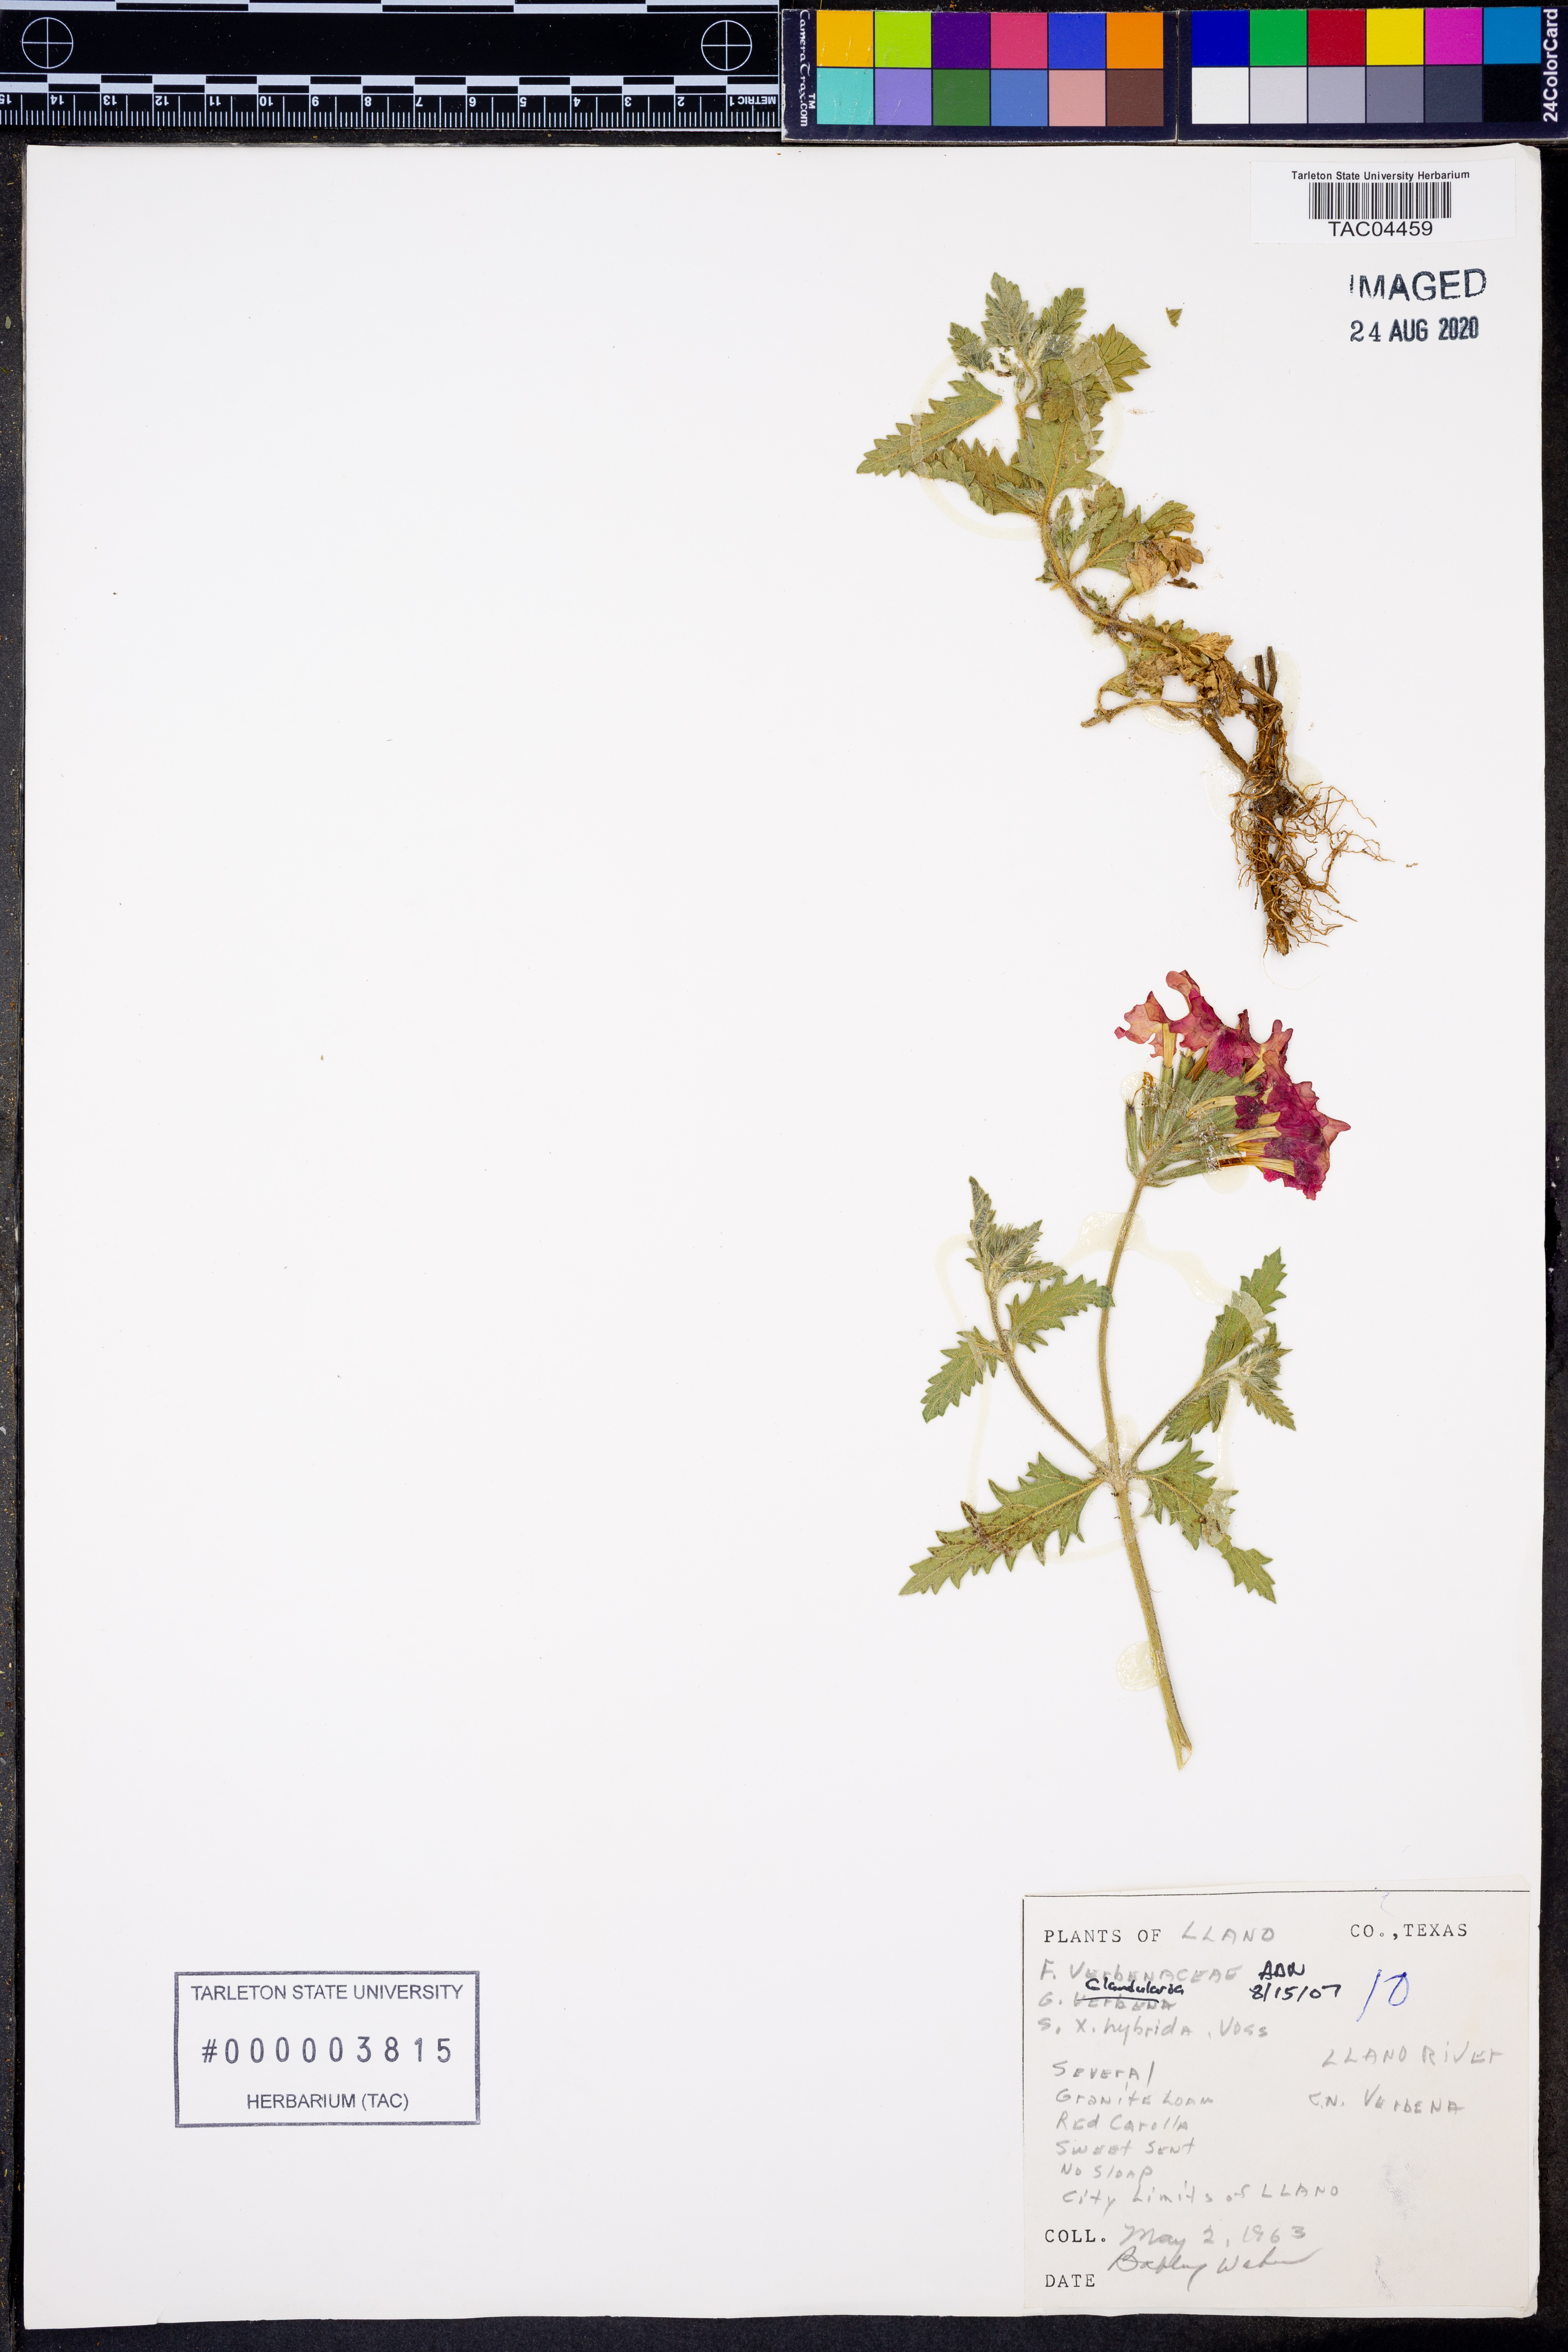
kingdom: Plantae
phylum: Tracheophyta
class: Magnoliopsida
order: Lamiales
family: Verbenaceae
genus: Verbena
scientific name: Verbena hybrida
